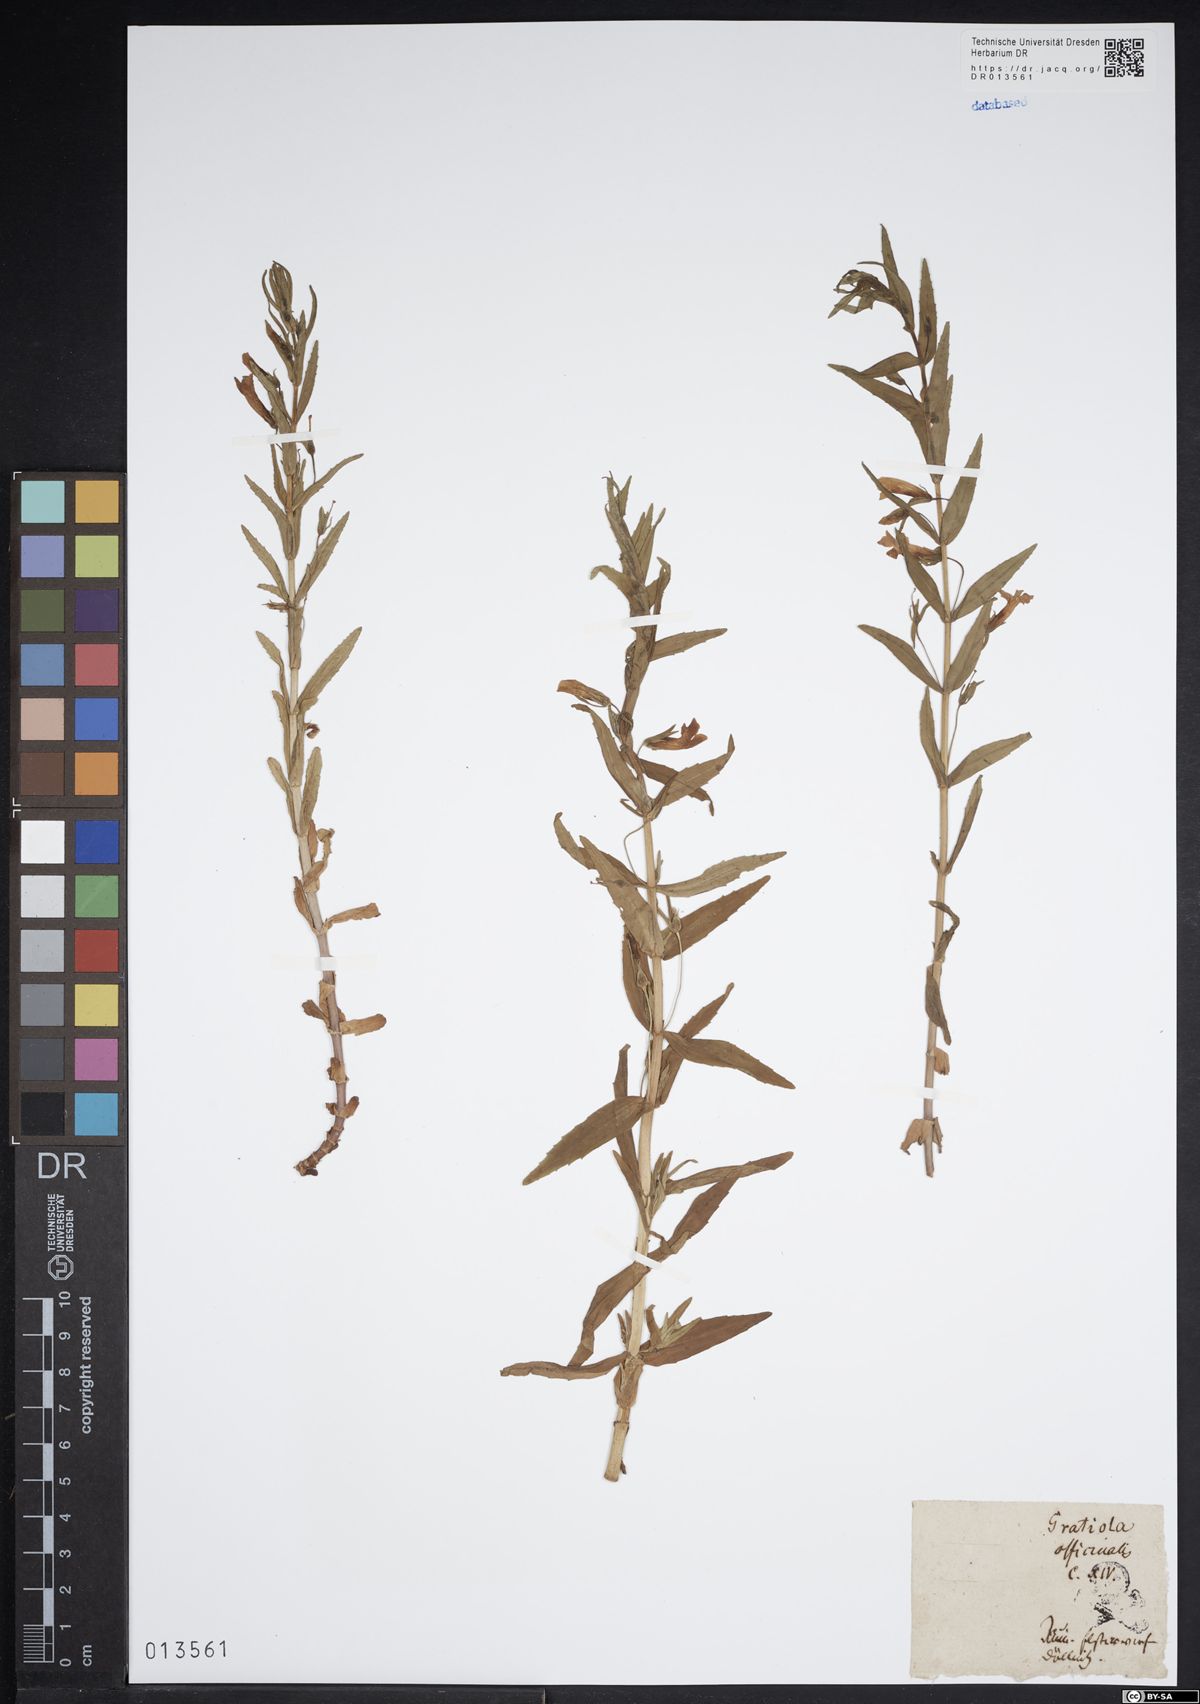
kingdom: Plantae
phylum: Tracheophyta
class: Magnoliopsida
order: Lamiales
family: Plantaginaceae
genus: Gratiola
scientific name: Gratiola officinalis
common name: Gratiola
